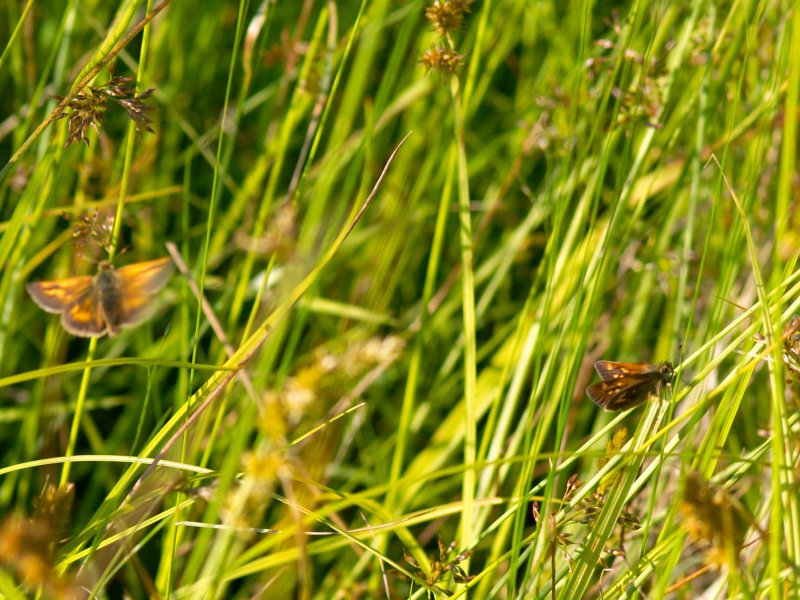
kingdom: Animalia
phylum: Arthropoda
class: Insecta
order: Lepidoptera
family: Hesperiidae
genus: Polites
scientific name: Polites
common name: Long Dash Skipper
